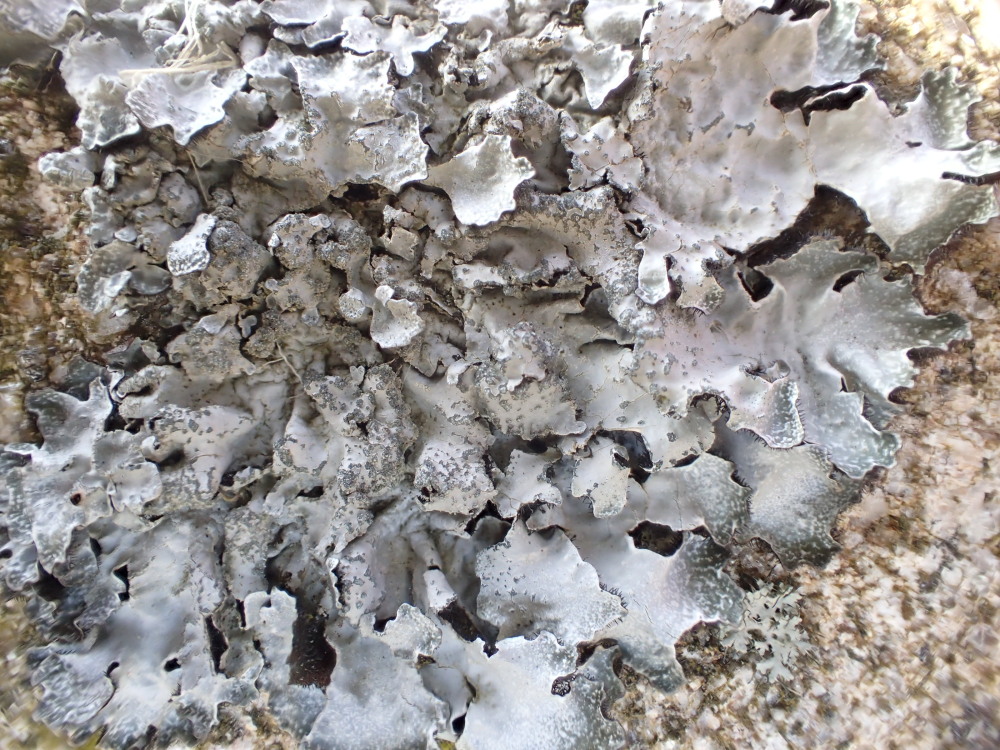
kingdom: Fungi
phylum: Ascomycota
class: Lecanoromycetes
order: Lecanorales
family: Parmeliaceae
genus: Parmelia
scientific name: Parmelia sulcata
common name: rynket skållav
